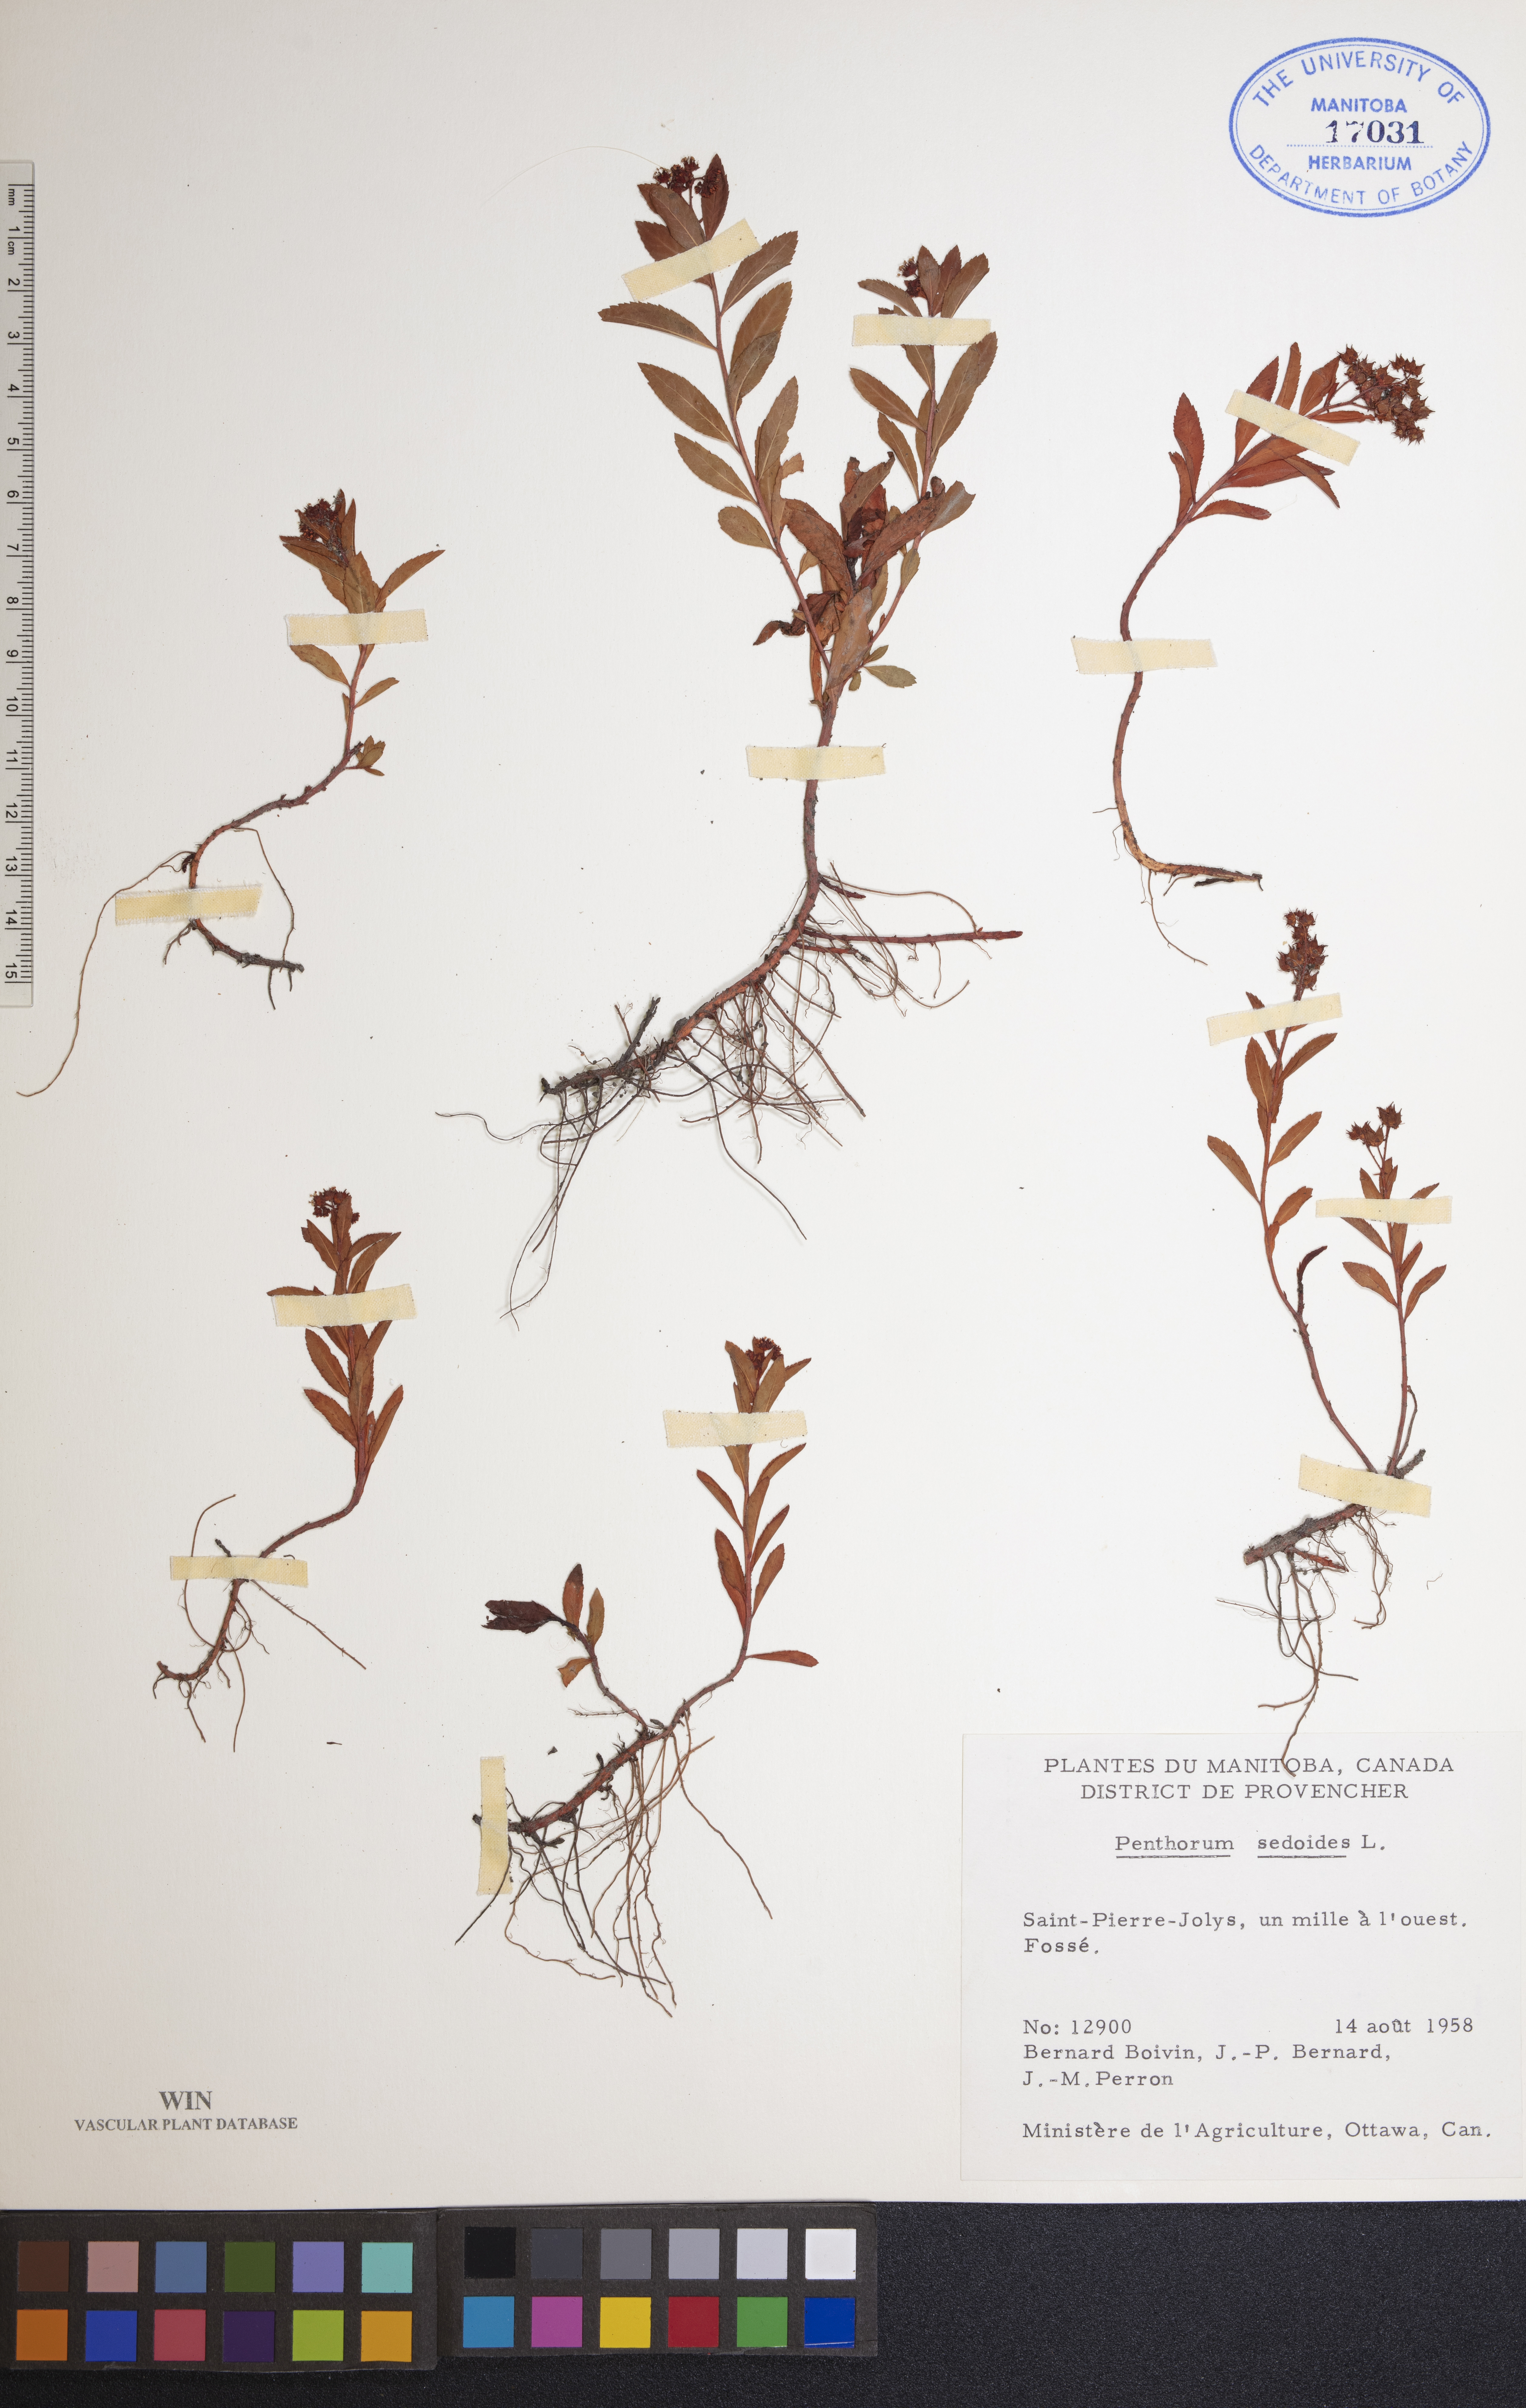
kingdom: Plantae
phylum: Tracheophyta
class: Magnoliopsida
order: Saxifragales
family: Penthoraceae
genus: Penthorum
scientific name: Penthorum sedoides
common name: Ditch stonecrop
